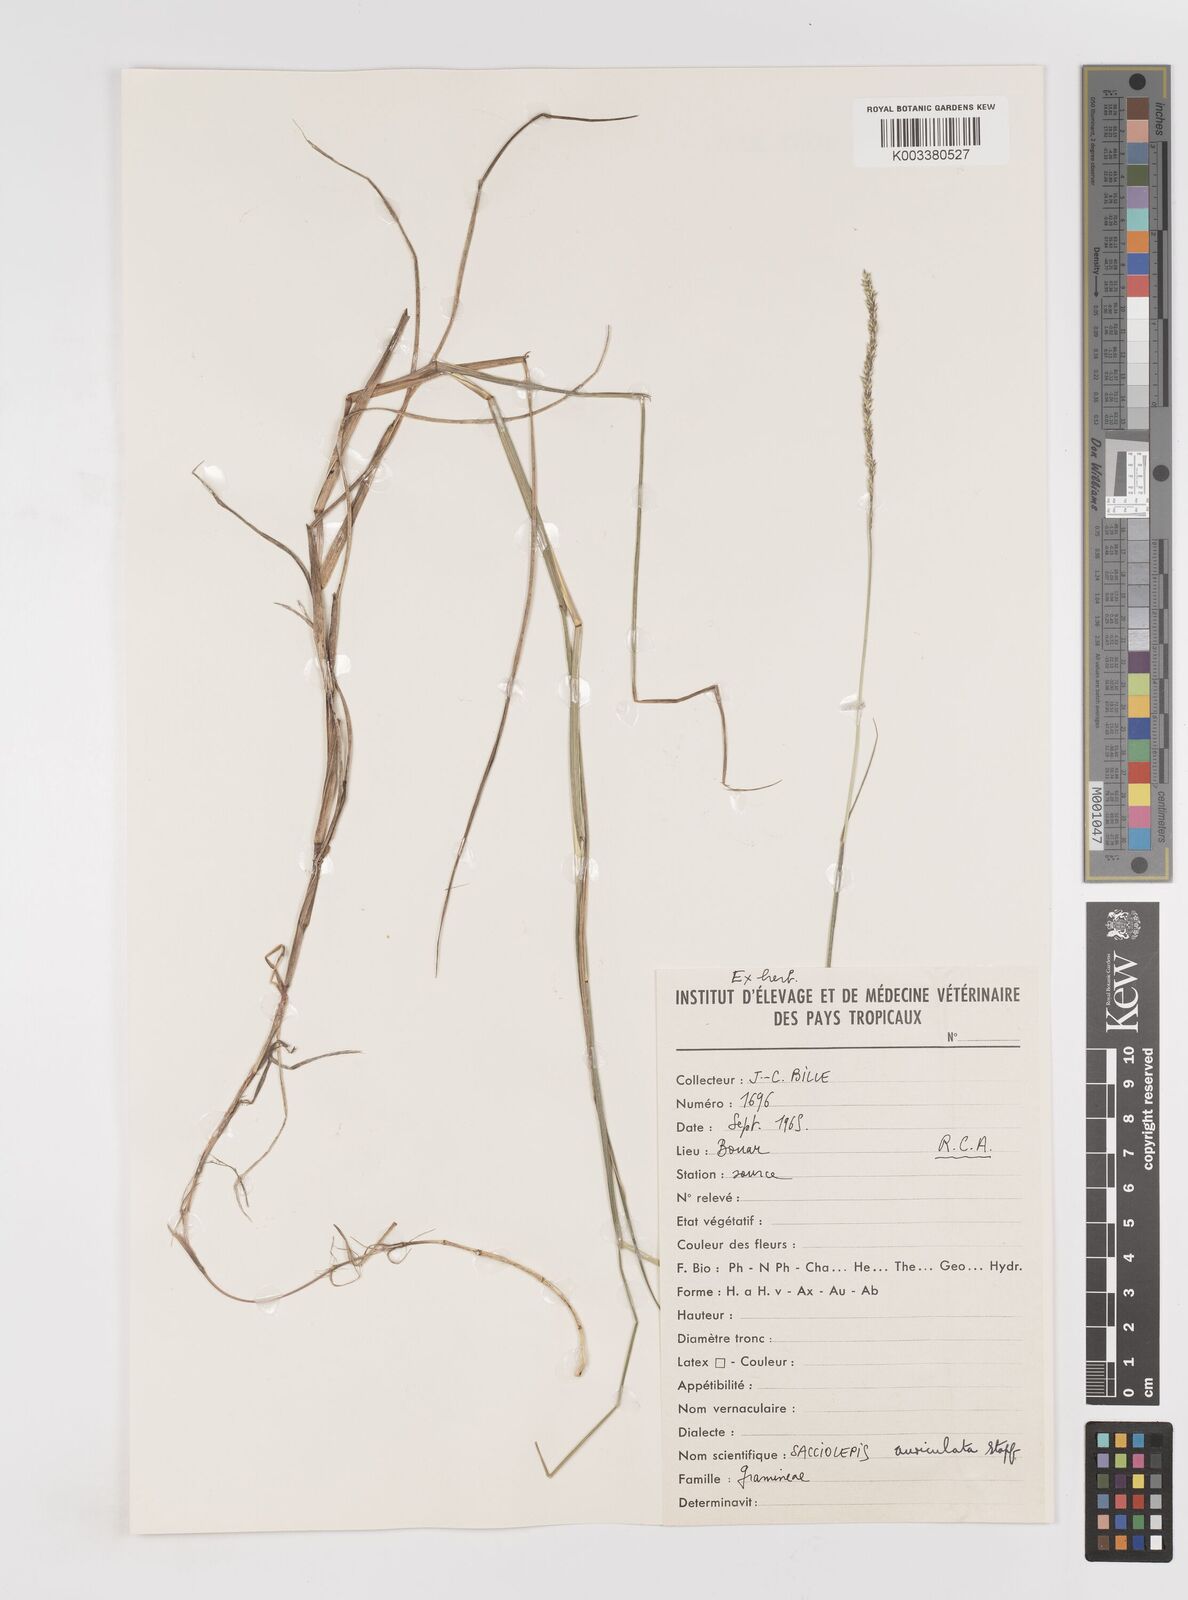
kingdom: Plantae
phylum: Tracheophyta
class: Liliopsida
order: Poales
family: Poaceae
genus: Sacciolepis
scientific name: Sacciolepis leptorrhachis
